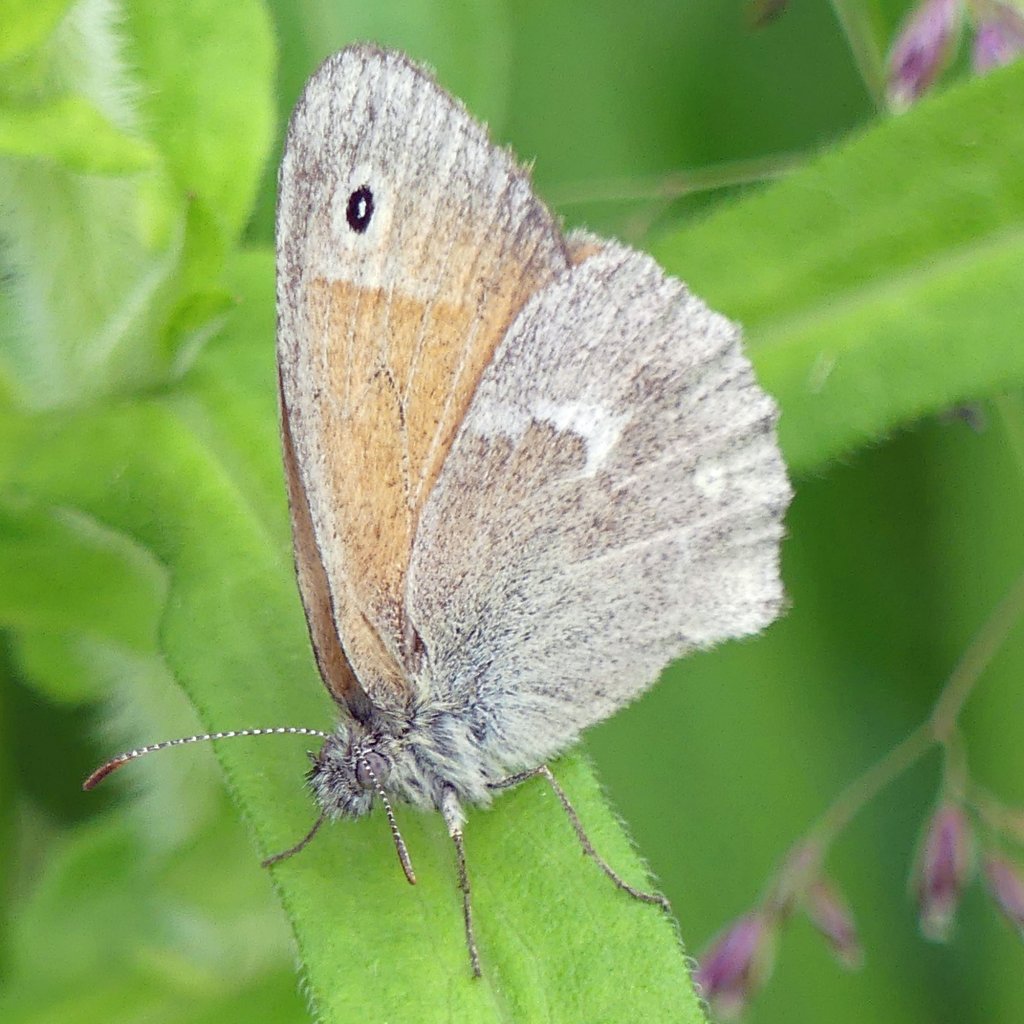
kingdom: Animalia
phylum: Arthropoda
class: Insecta
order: Lepidoptera
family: Nymphalidae
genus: Coenonympha
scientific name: Coenonympha tullia
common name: Large Heath
